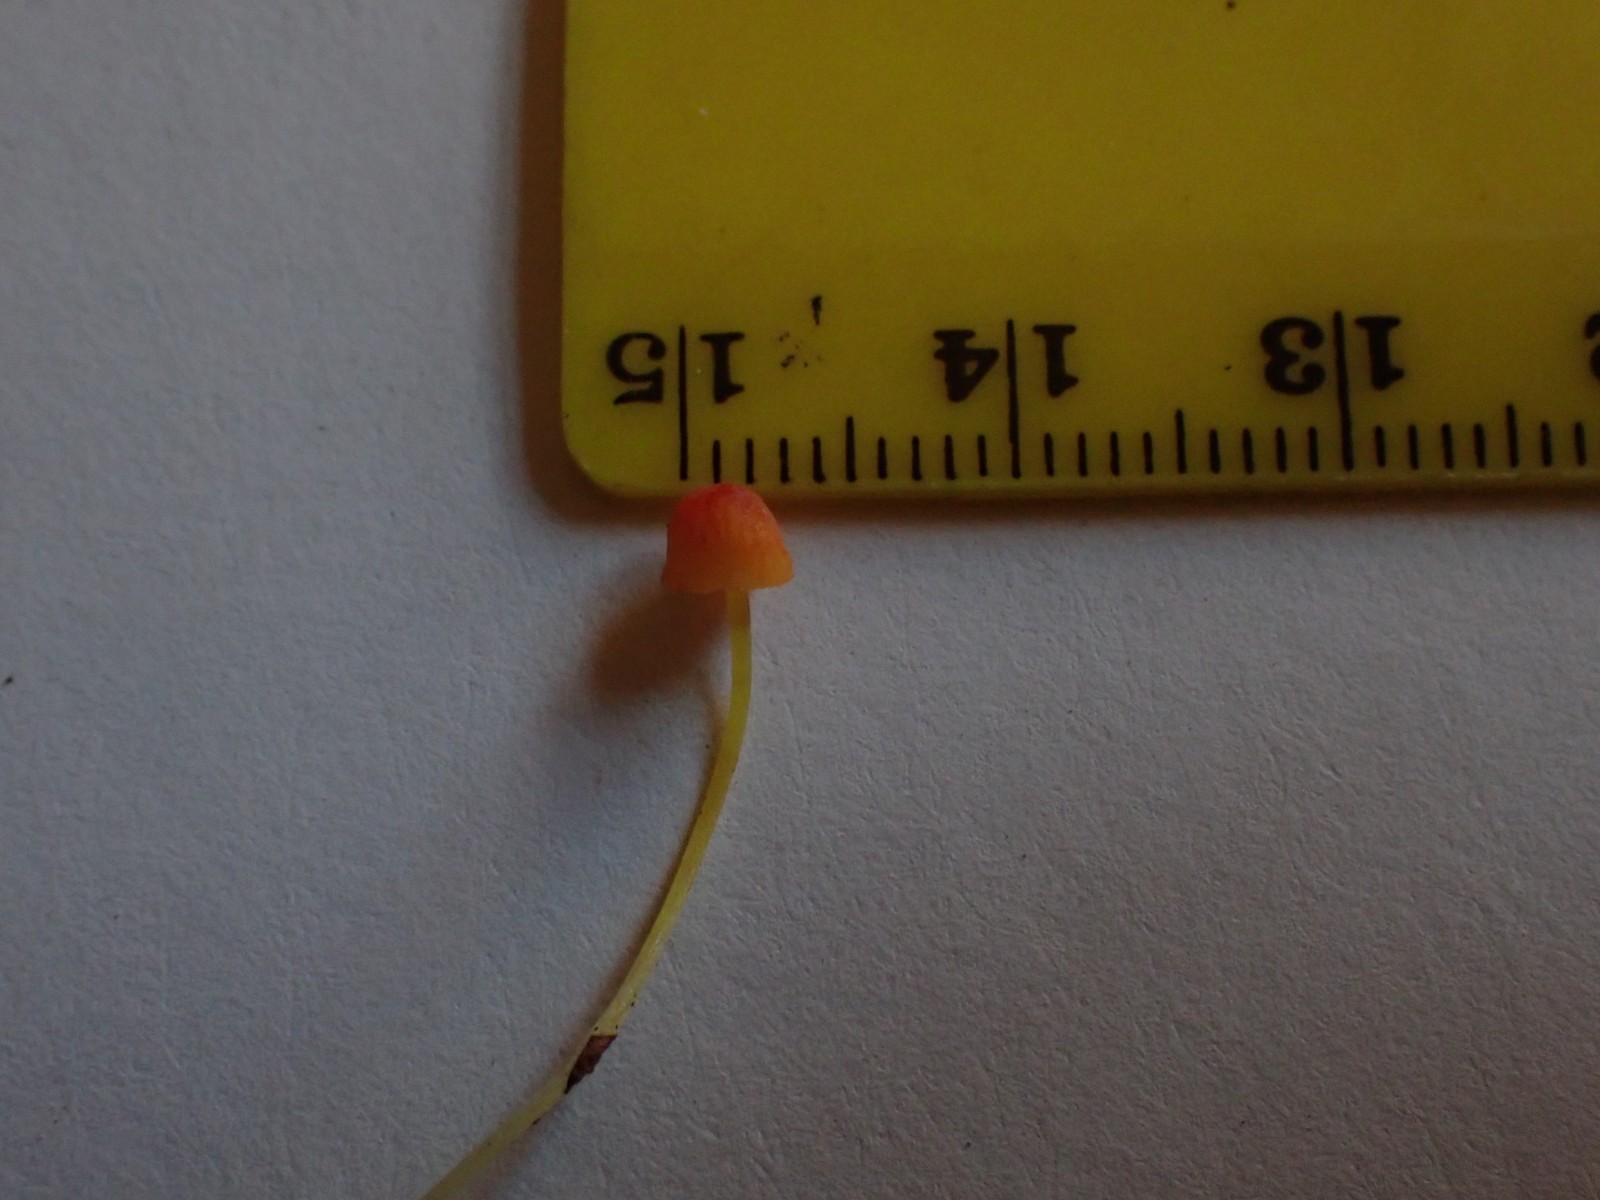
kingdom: Fungi
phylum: Basidiomycota
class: Agaricomycetes
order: Agaricales
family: Mycenaceae
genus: Mycena
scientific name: Mycena acicula
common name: orange huesvamp
